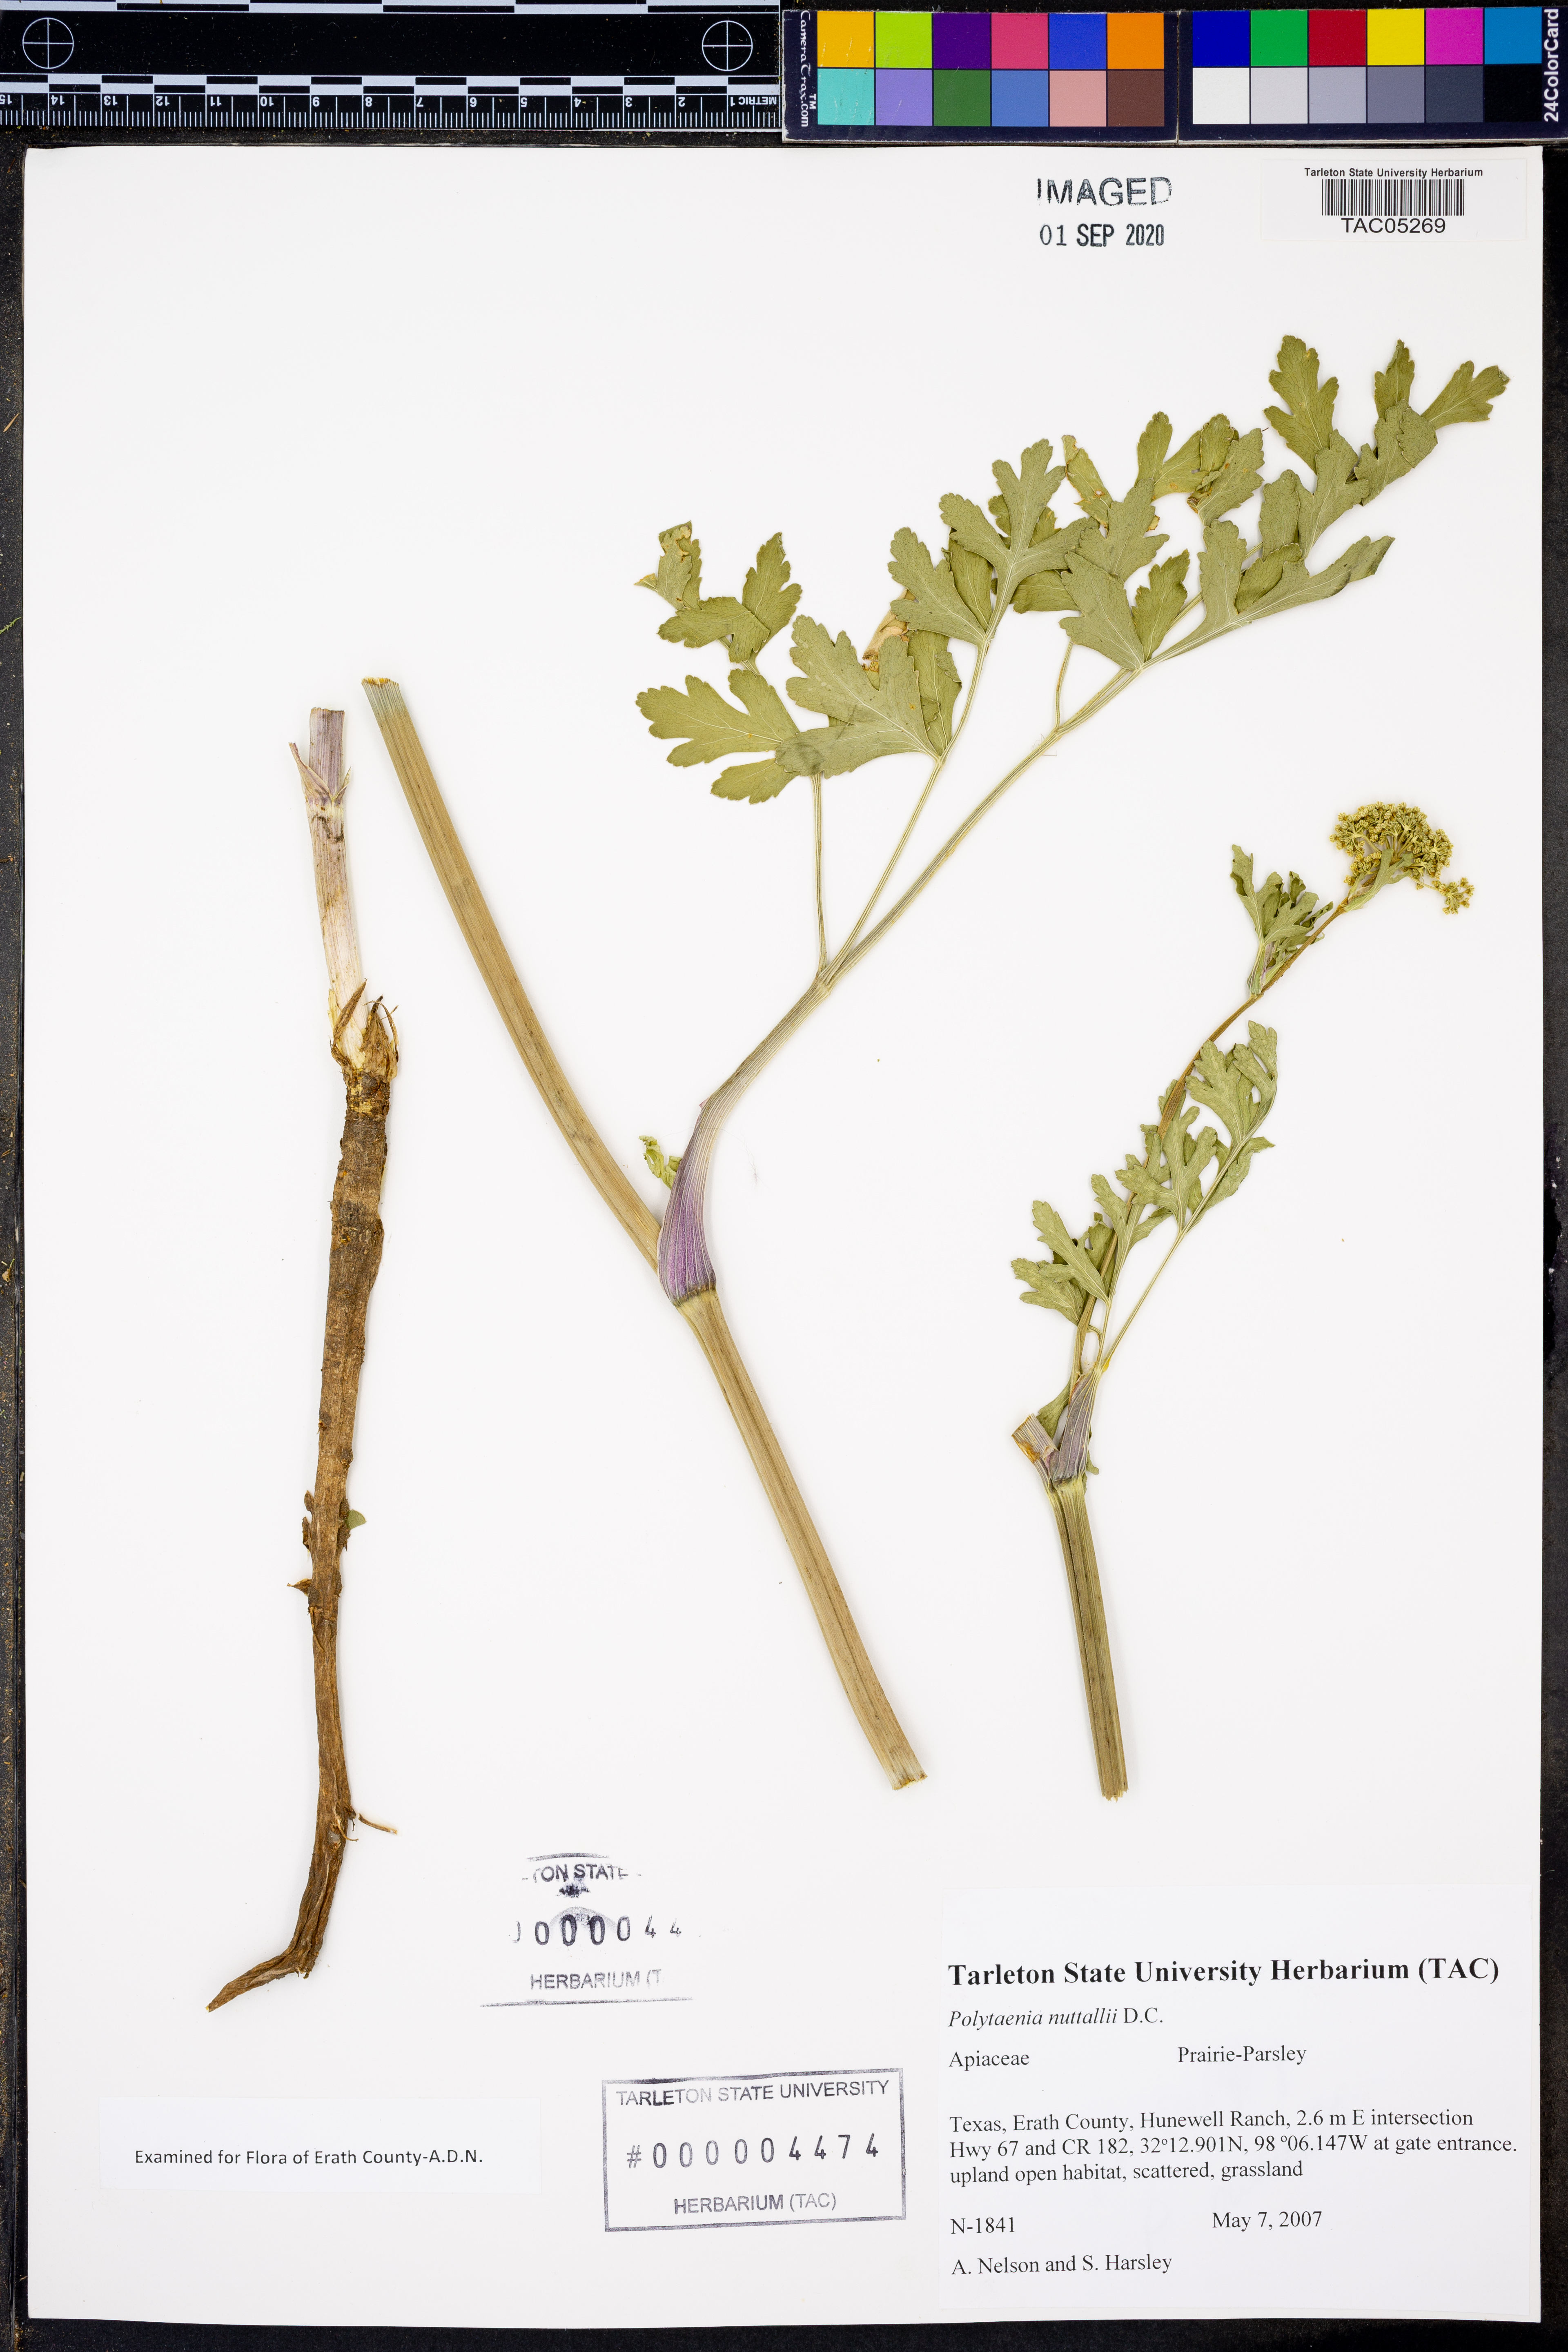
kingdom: Plantae
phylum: Tracheophyta
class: Magnoliopsida
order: Apiales
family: Apiaceae
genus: Polytaenia
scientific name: Polytaenia nuttallii
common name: Prairie-parsley
